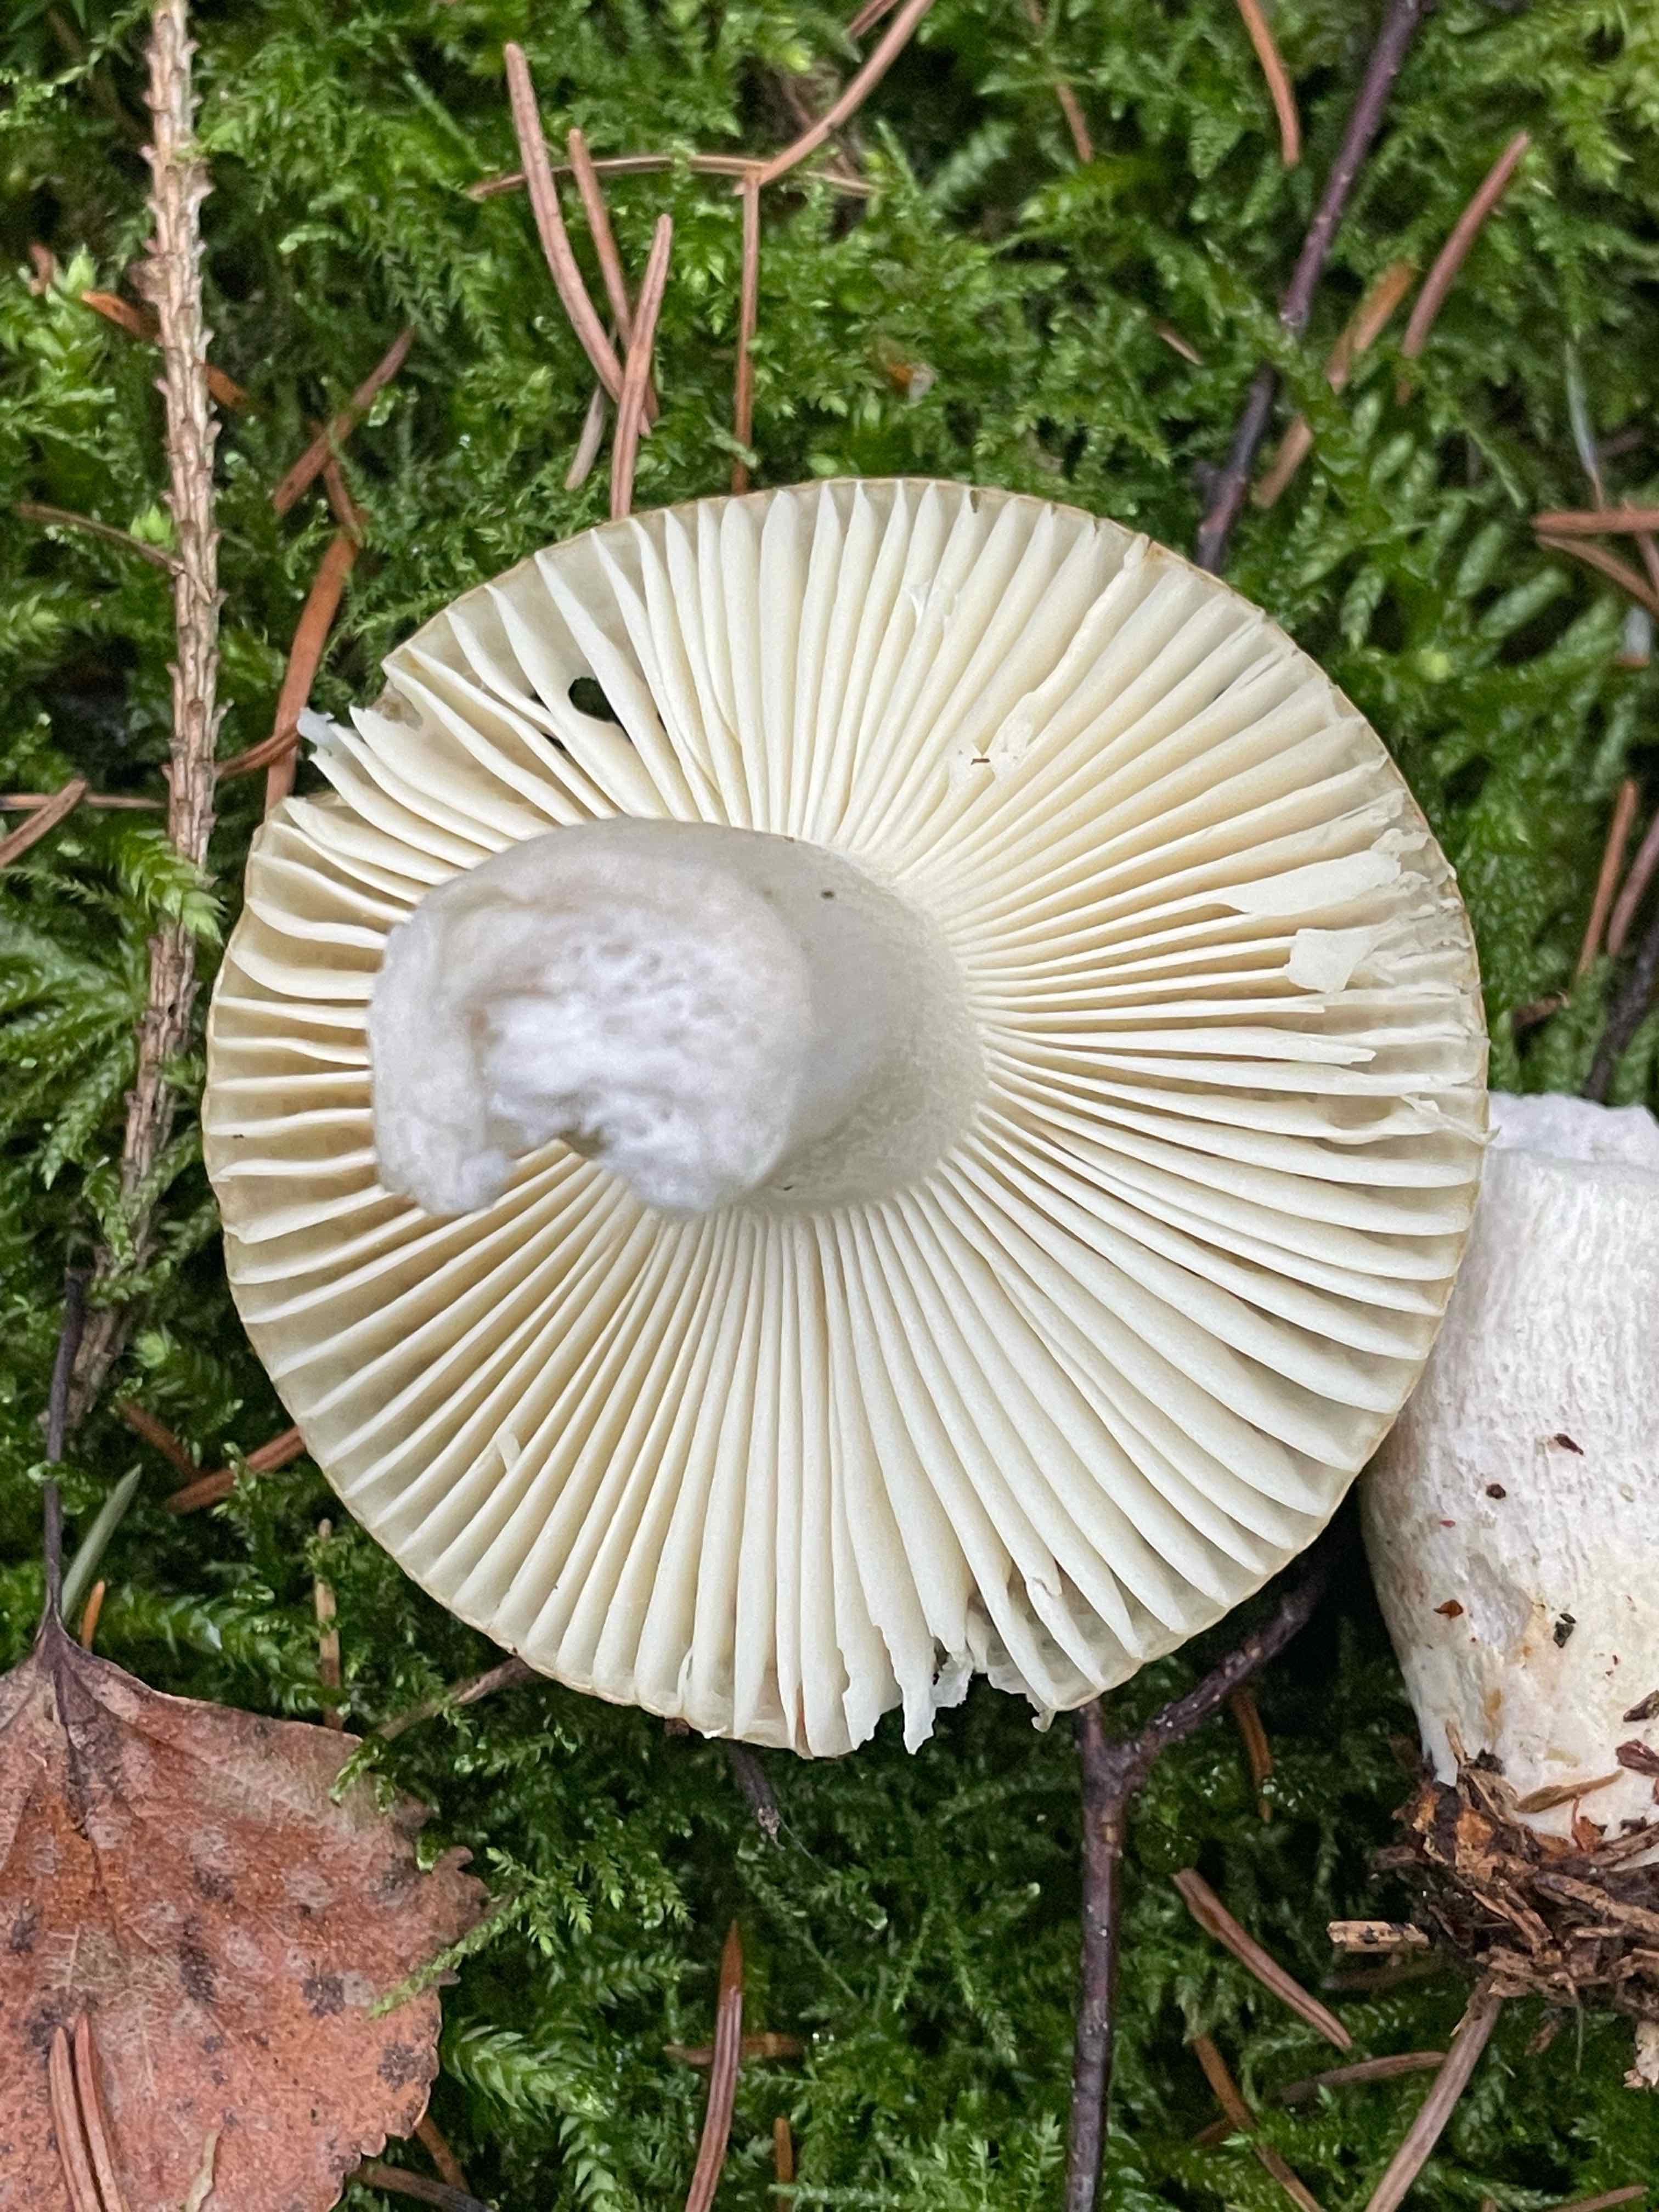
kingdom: Fungi
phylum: Basidiomycota
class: Agaricomycetes
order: Russulales
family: Russulaceae
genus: Russula
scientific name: Russula ochroleuca
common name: okkergul skørhat
